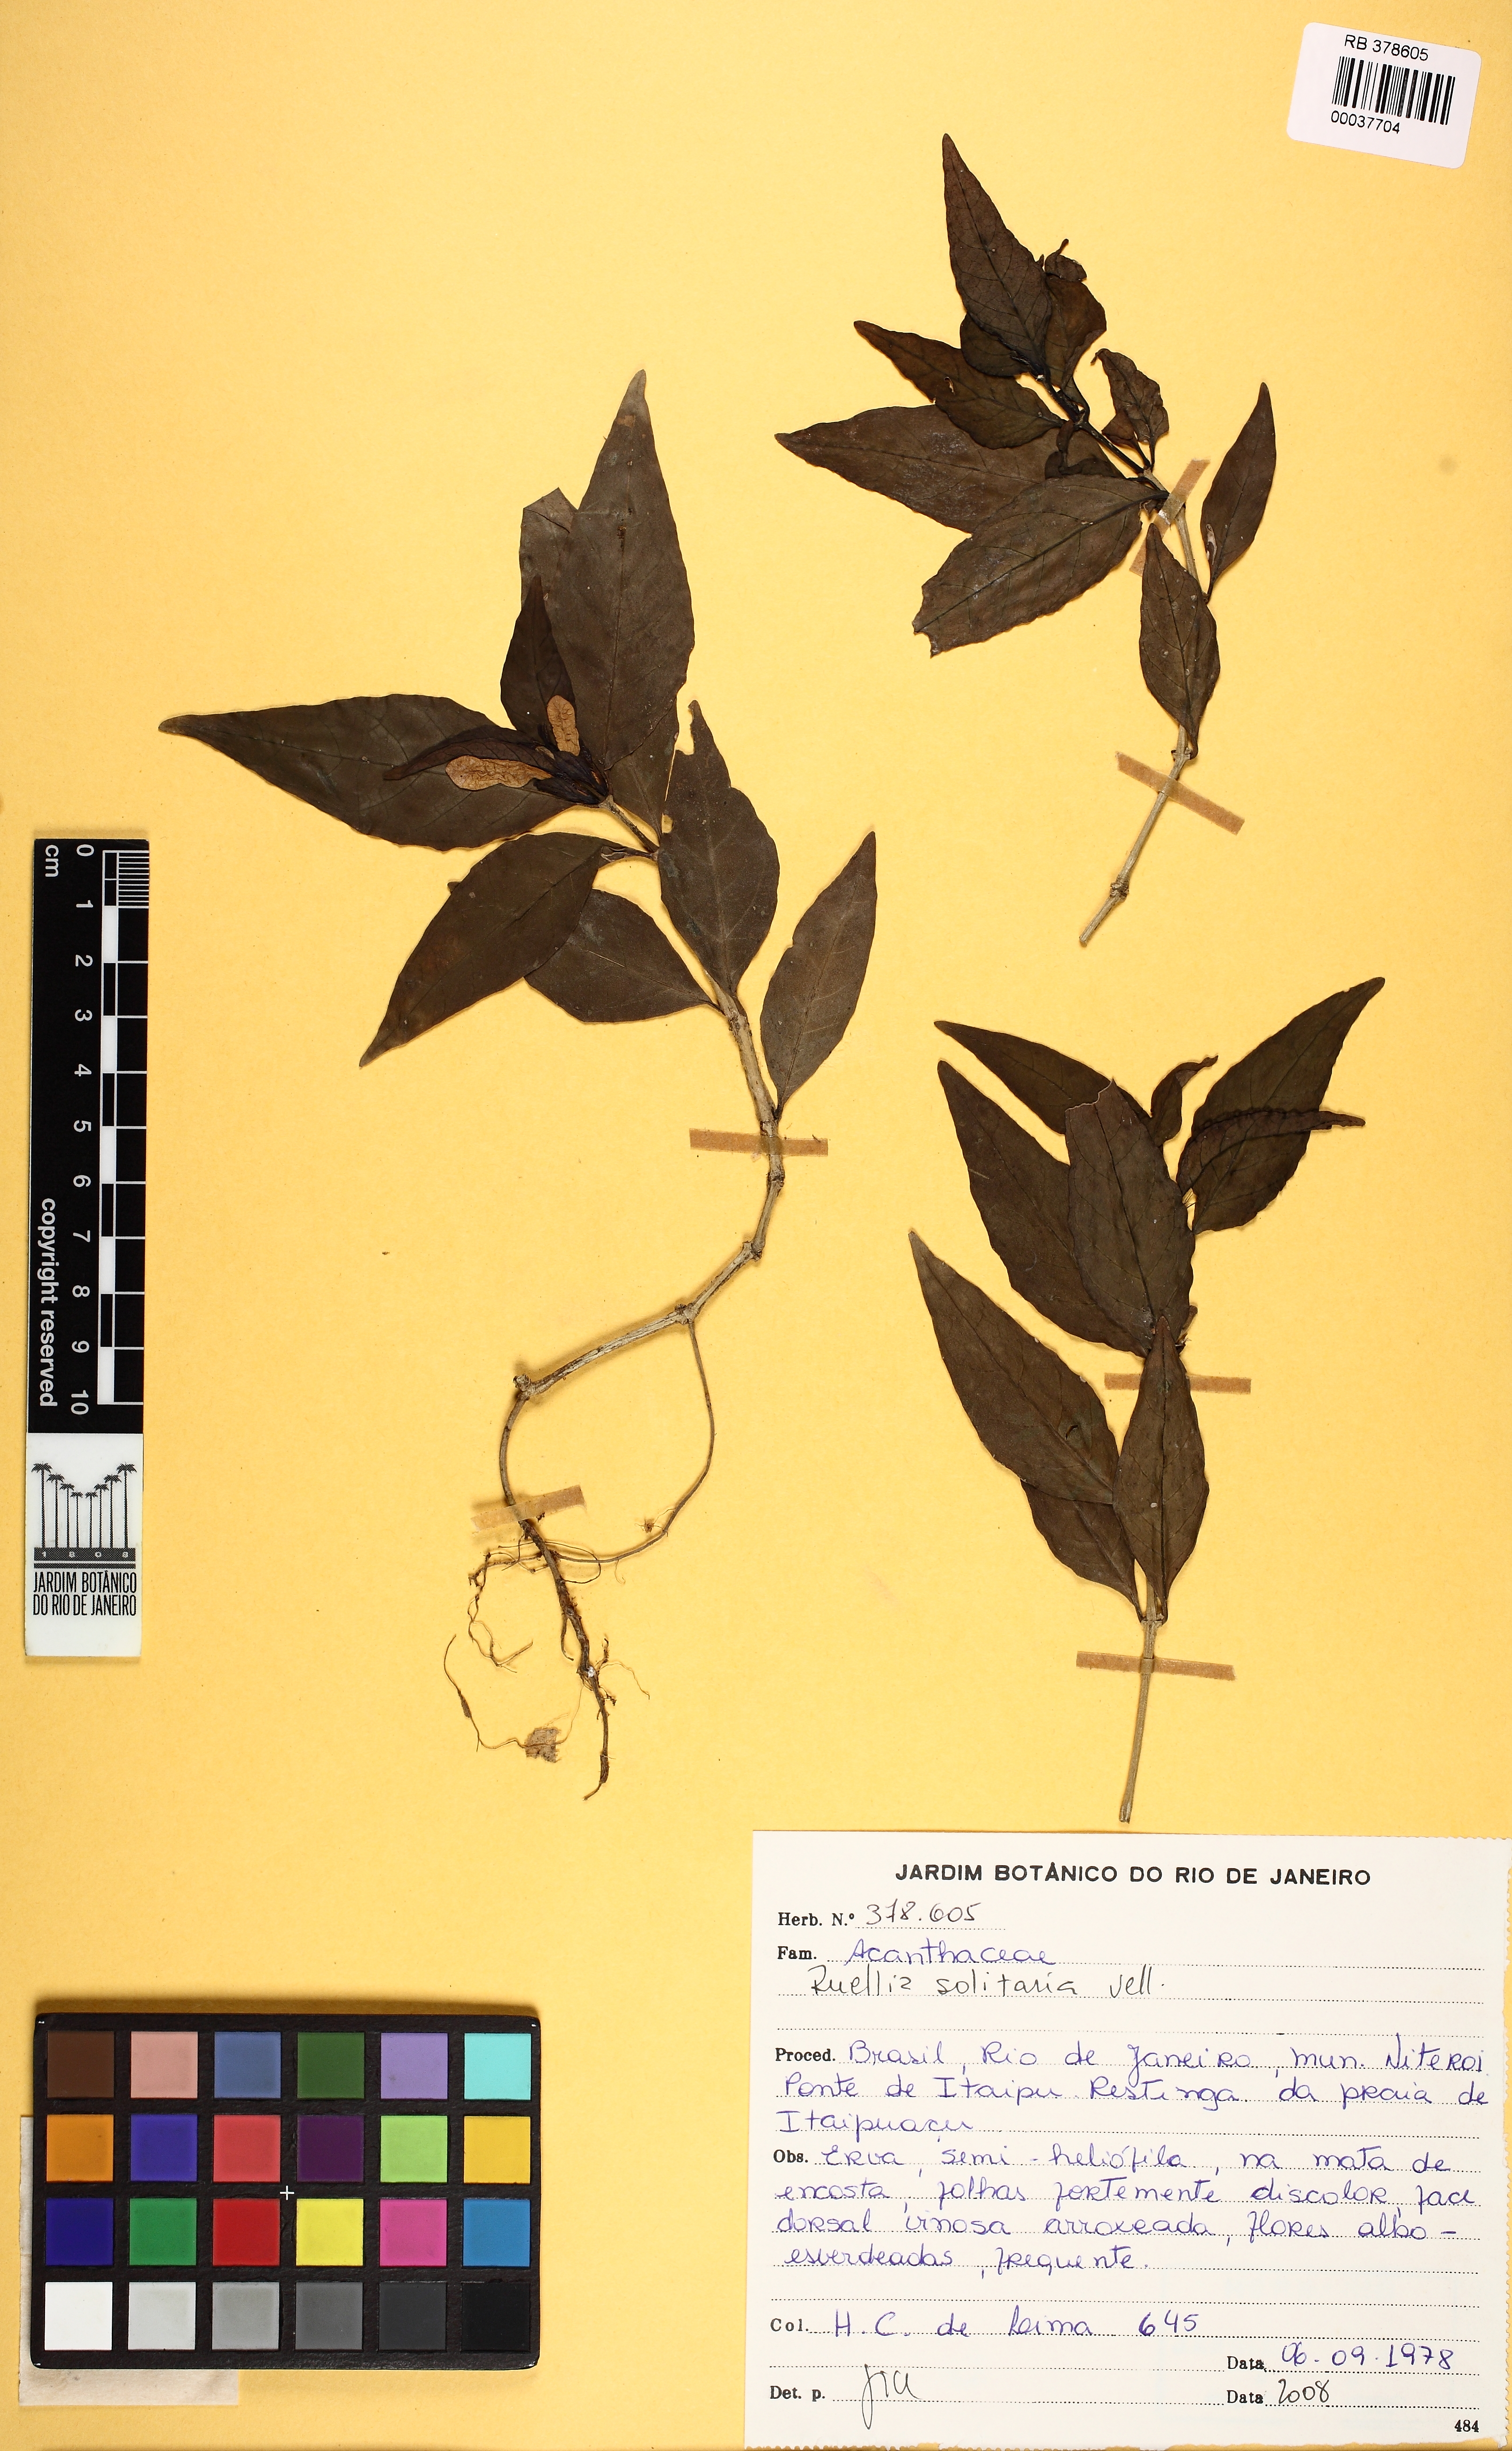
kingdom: Plantae
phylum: Tracheophyta
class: Magnoliopsida
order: Lamiales
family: Acanthaceae
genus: Ruellia
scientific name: Ruellia solitaria
